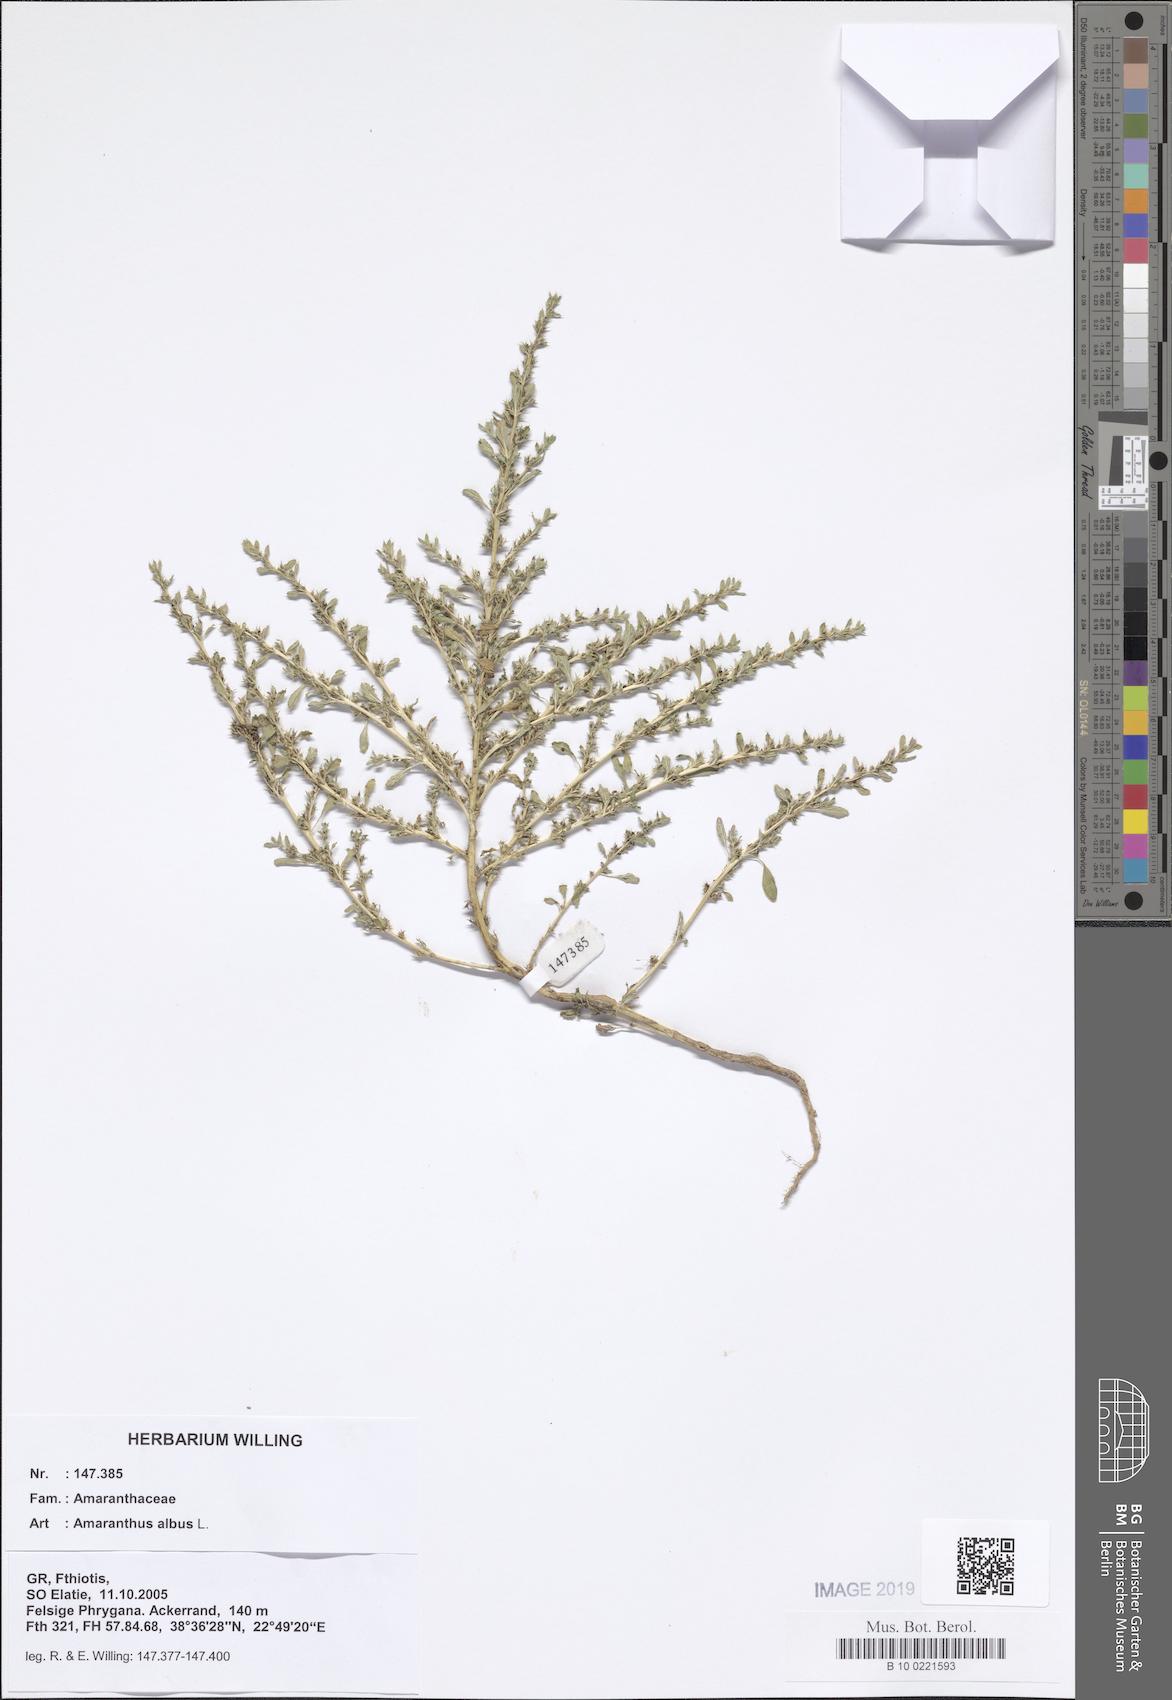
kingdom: Plantae
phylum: Tracheophyta
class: Magnoliopsida
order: Caryophyllales
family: Amaranthaceae
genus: Amaranthus
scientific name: Amaranthus albus
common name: White pigweed
